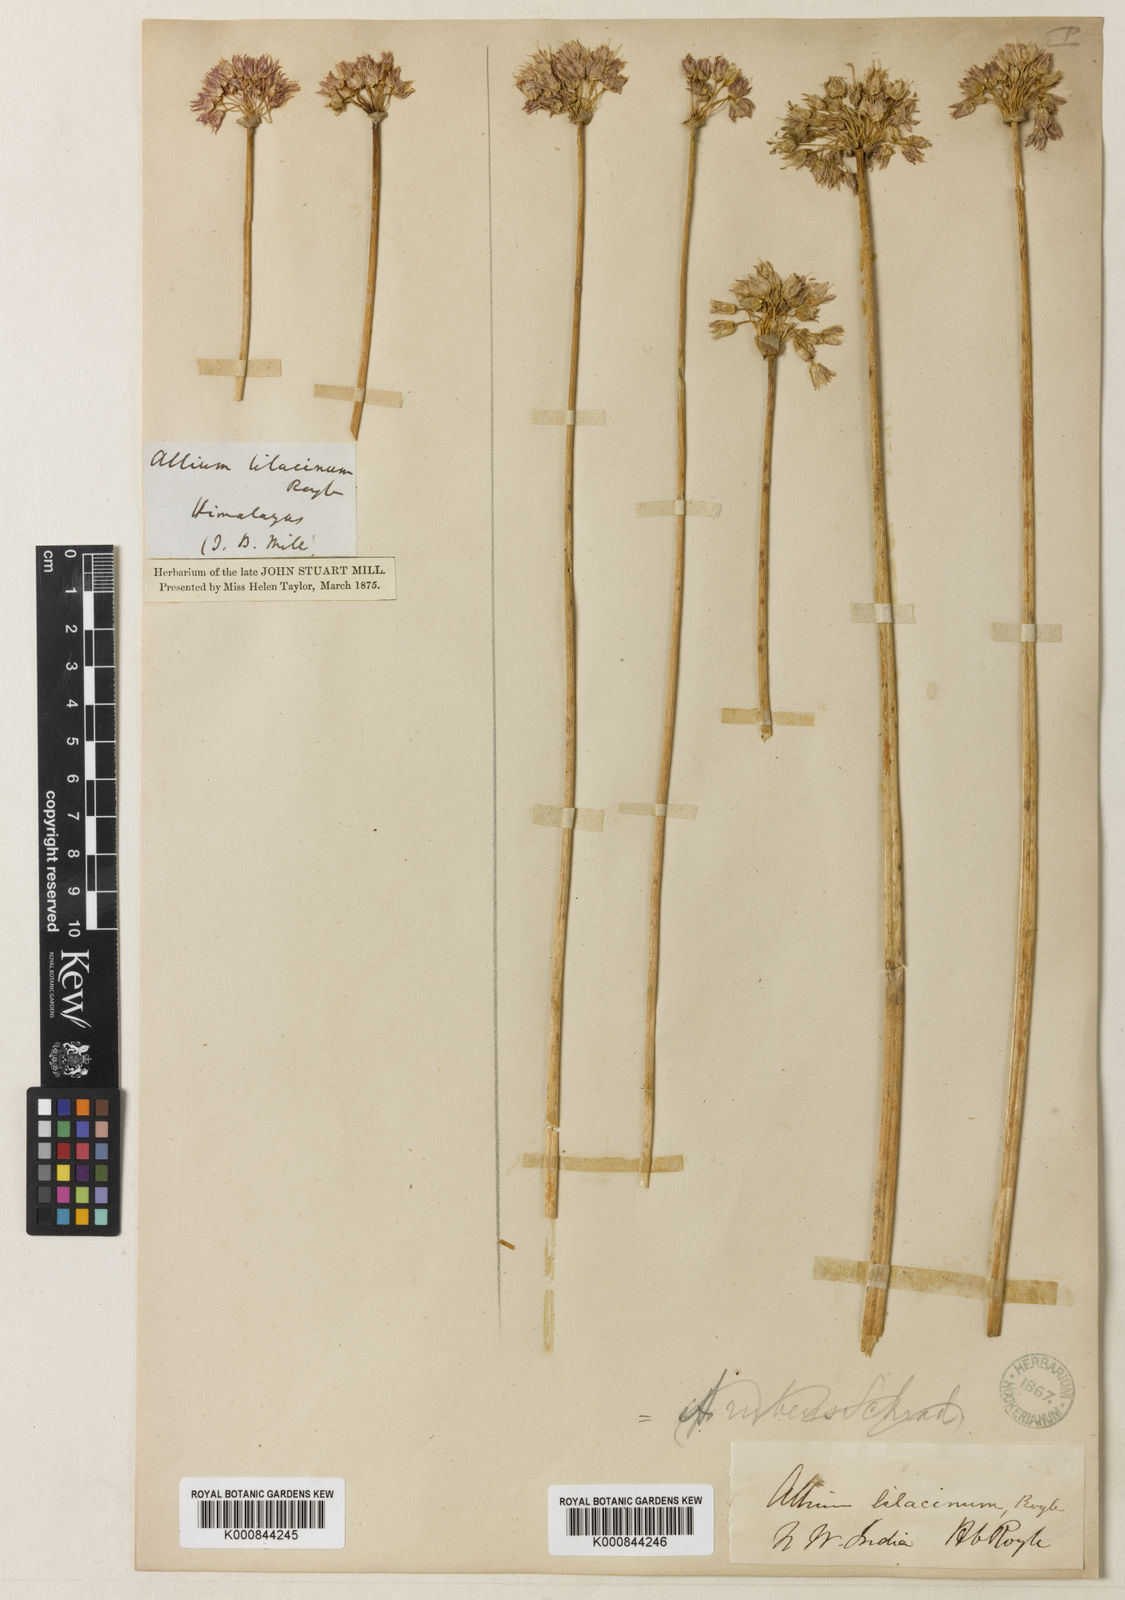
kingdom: Plantae
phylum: Tracheophyta
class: Liliopsida
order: Asparagales
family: Amaryllidaceae
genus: Allium
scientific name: Allium roylei
